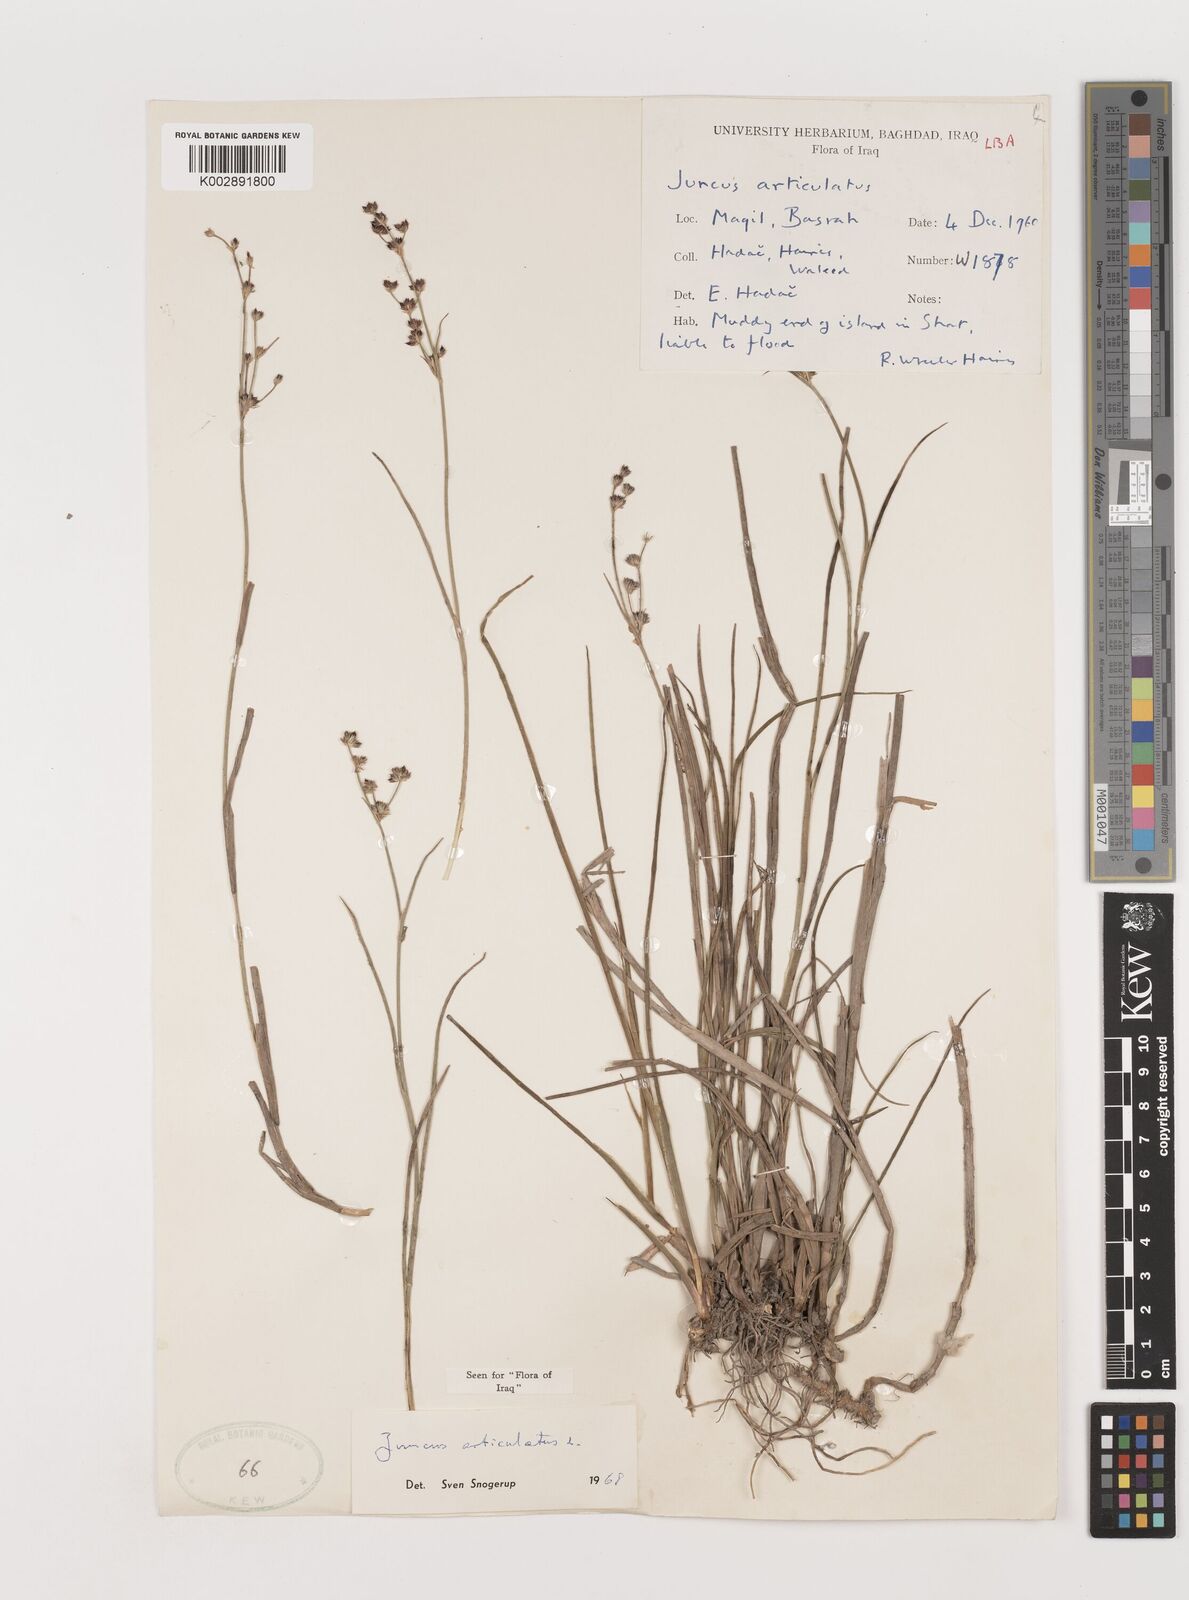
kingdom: Plantae
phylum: Tracheophyta
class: Liliopsida
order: Poales
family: Juncaceae
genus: Juncus
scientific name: Juncus articulatus
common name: Jointed rush
